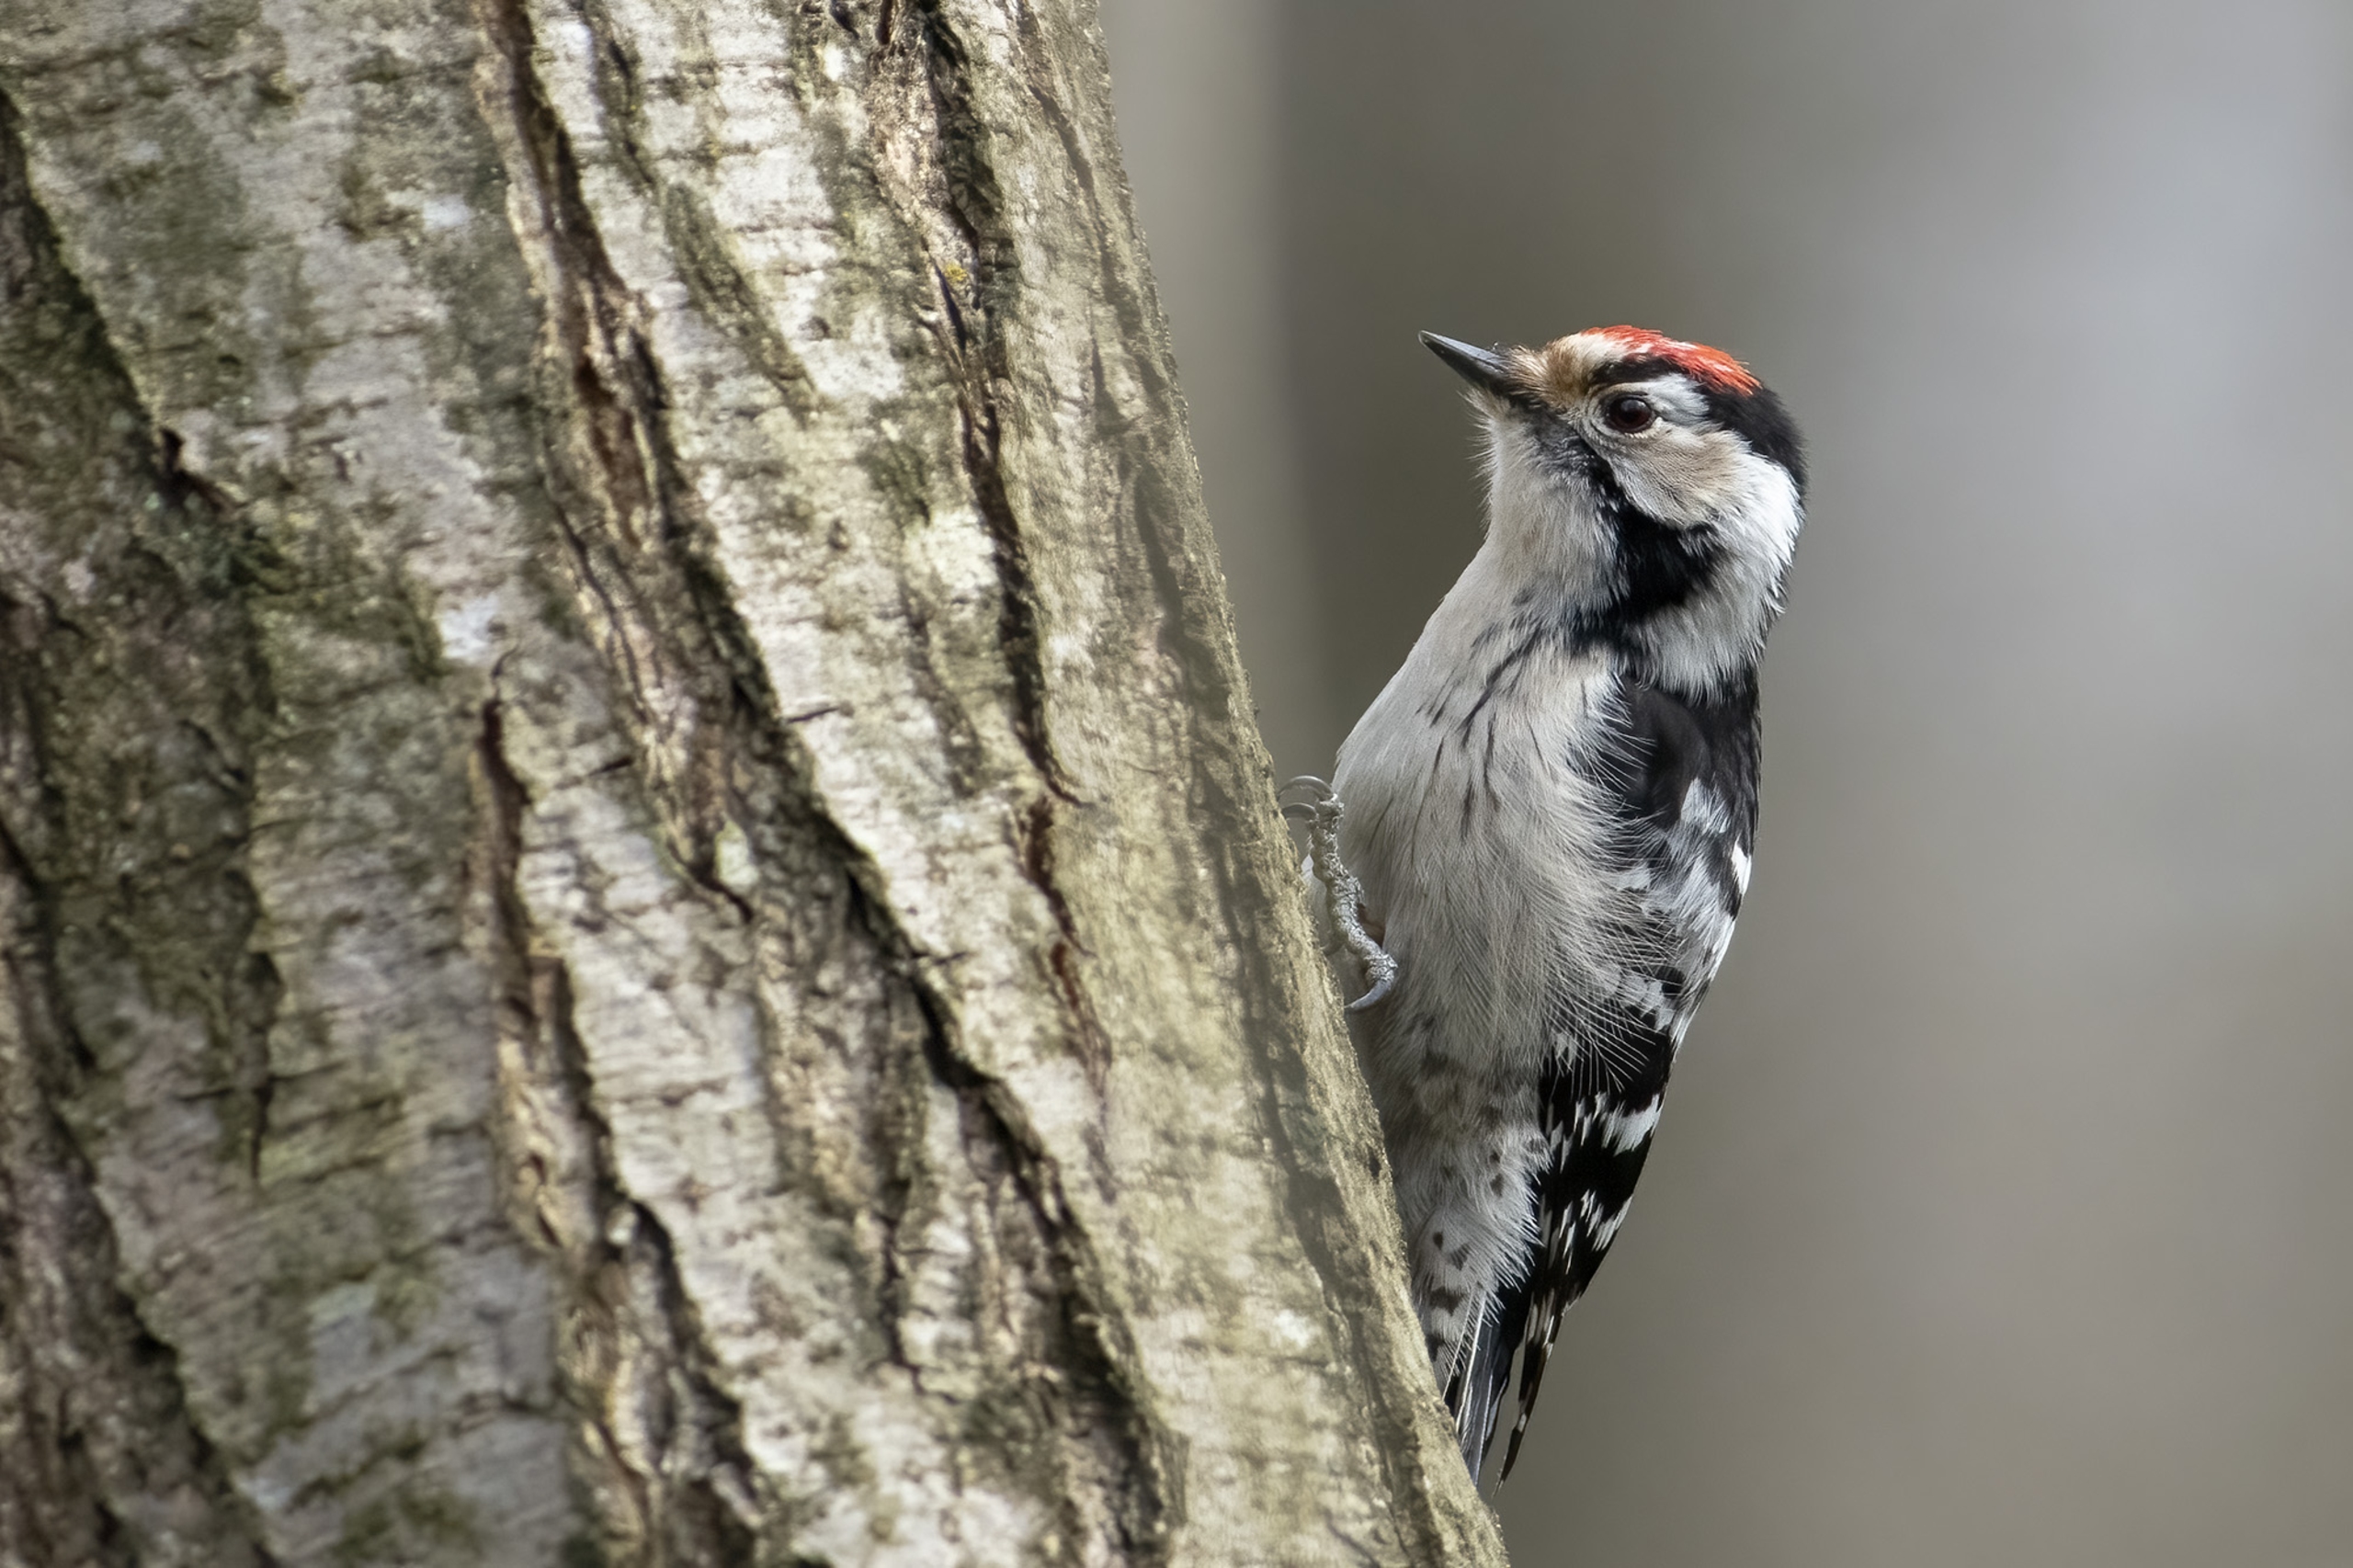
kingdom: Animalia
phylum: Chordata
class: Aves
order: Piciformes
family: Picidae
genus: Dryobates
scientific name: Dryobates minor
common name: Lille flagspætte
